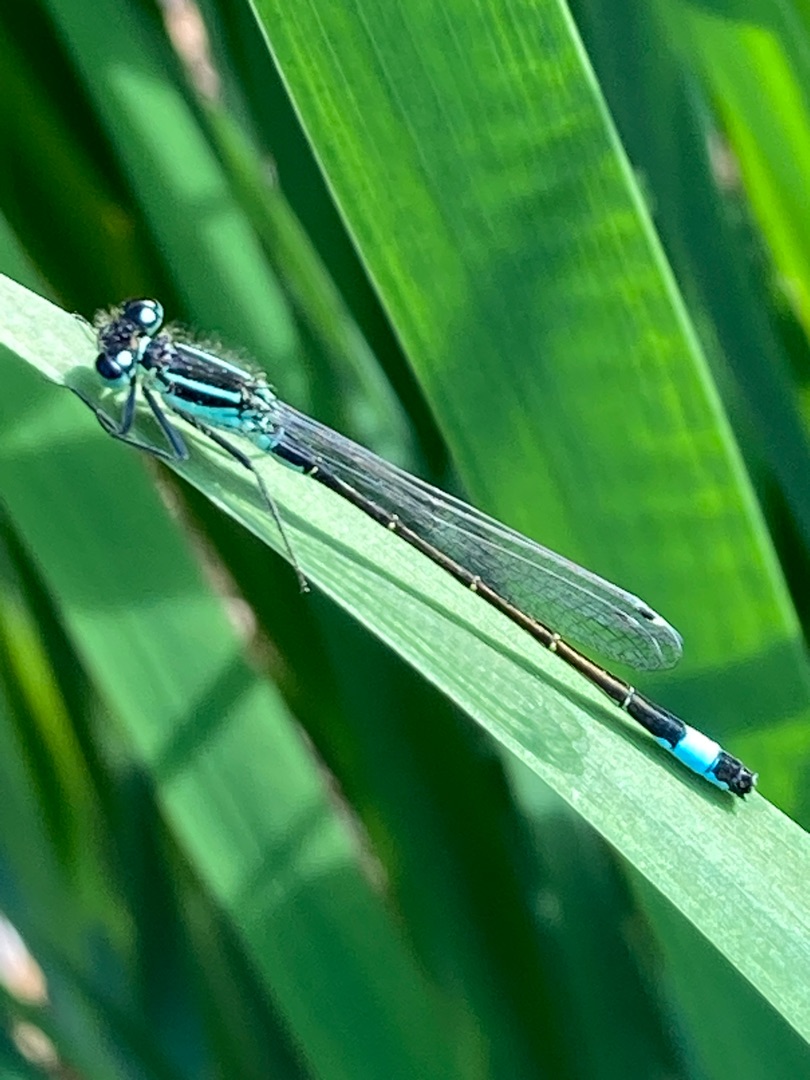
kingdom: Animalia
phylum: Arthropoda
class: Insecta
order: Odonata
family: Coenagrionidae
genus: Ischnura
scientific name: Ischnura elegans
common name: Stor farvevandnymfe
